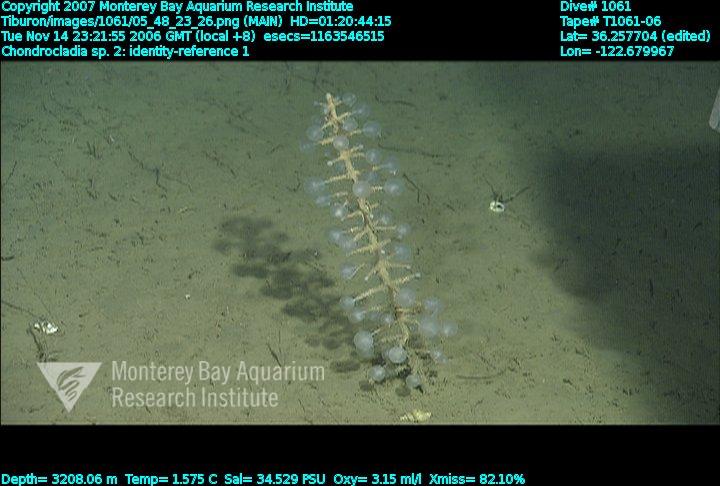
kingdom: Animalia
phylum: Porifera
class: Demospongiae
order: Poecilosclerida
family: Cladorhizidae
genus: Chondrocladia
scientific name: Chondrocladia
